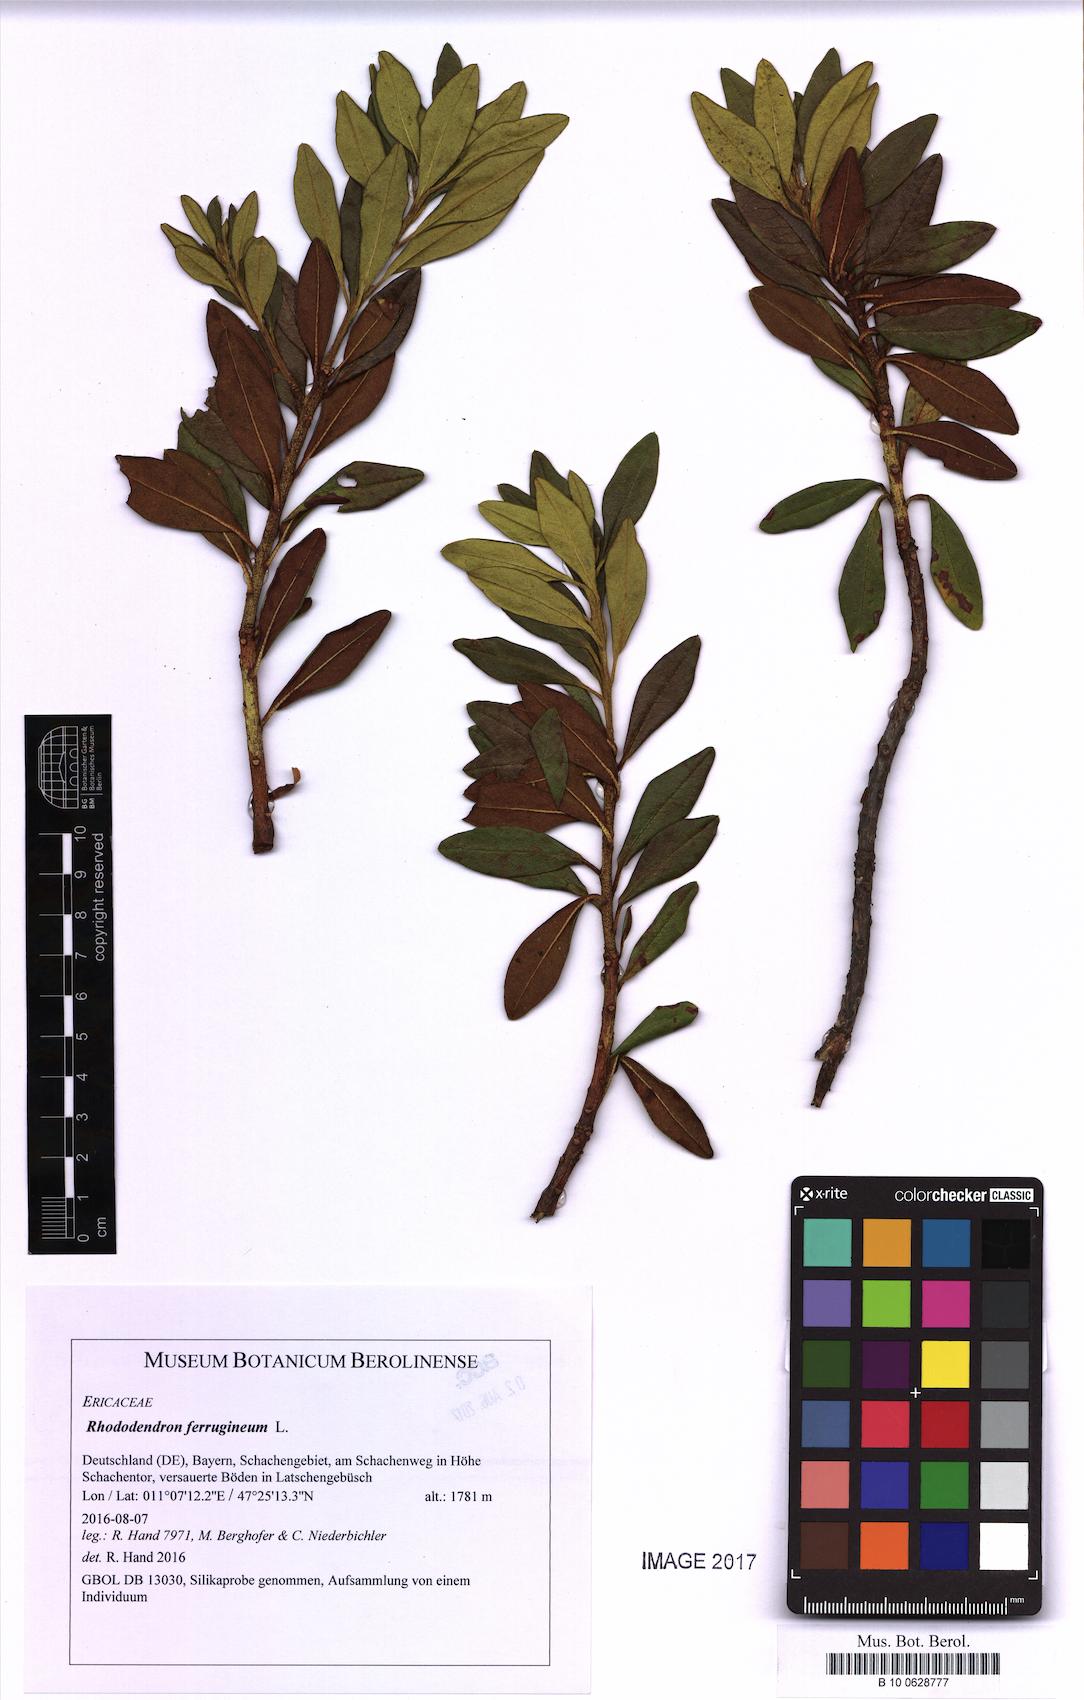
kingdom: Plantae
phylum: Tracheophyta
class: Magnoliopsida
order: Ericales
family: Ericaceae
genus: Rhododendron
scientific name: Rhododendron ferrugineum
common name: Alpenrose
